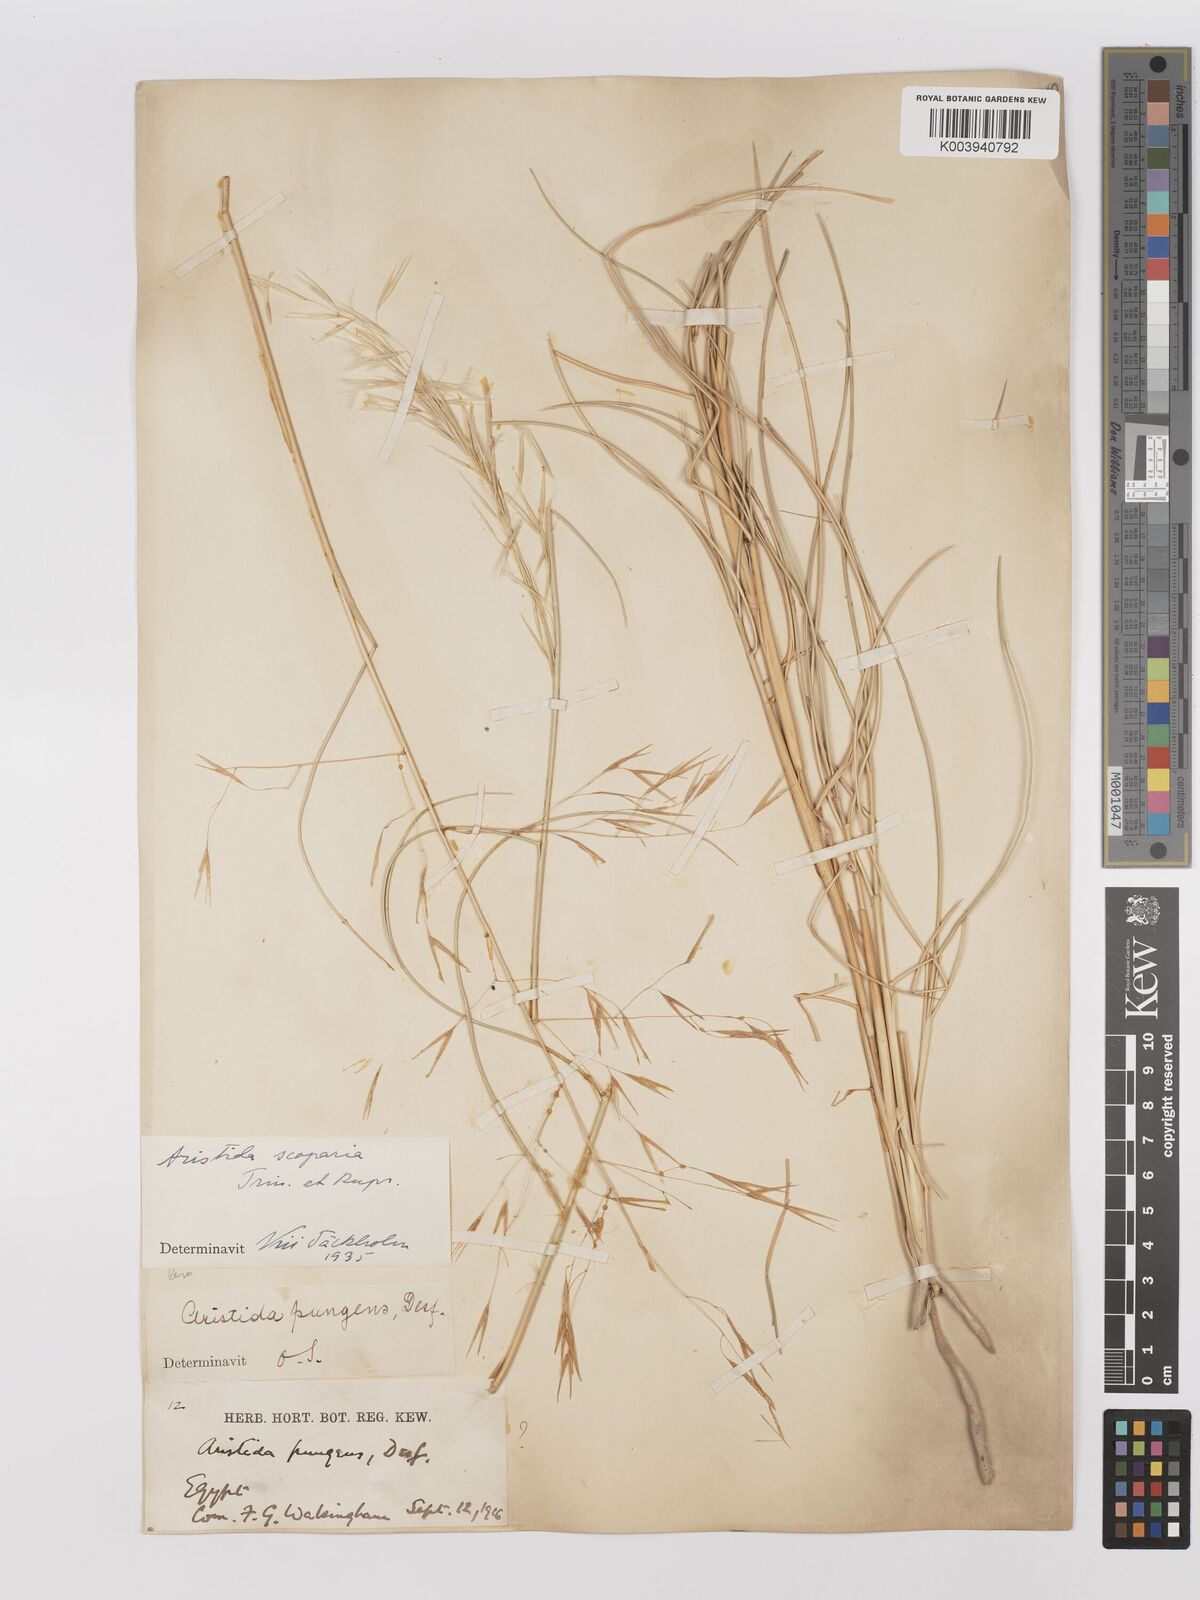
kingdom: Plantae
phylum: Tracheophyta
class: Liliopsida
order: Poales
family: Poaceae
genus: Stipagrostis
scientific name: Stipagrostis scoparia
